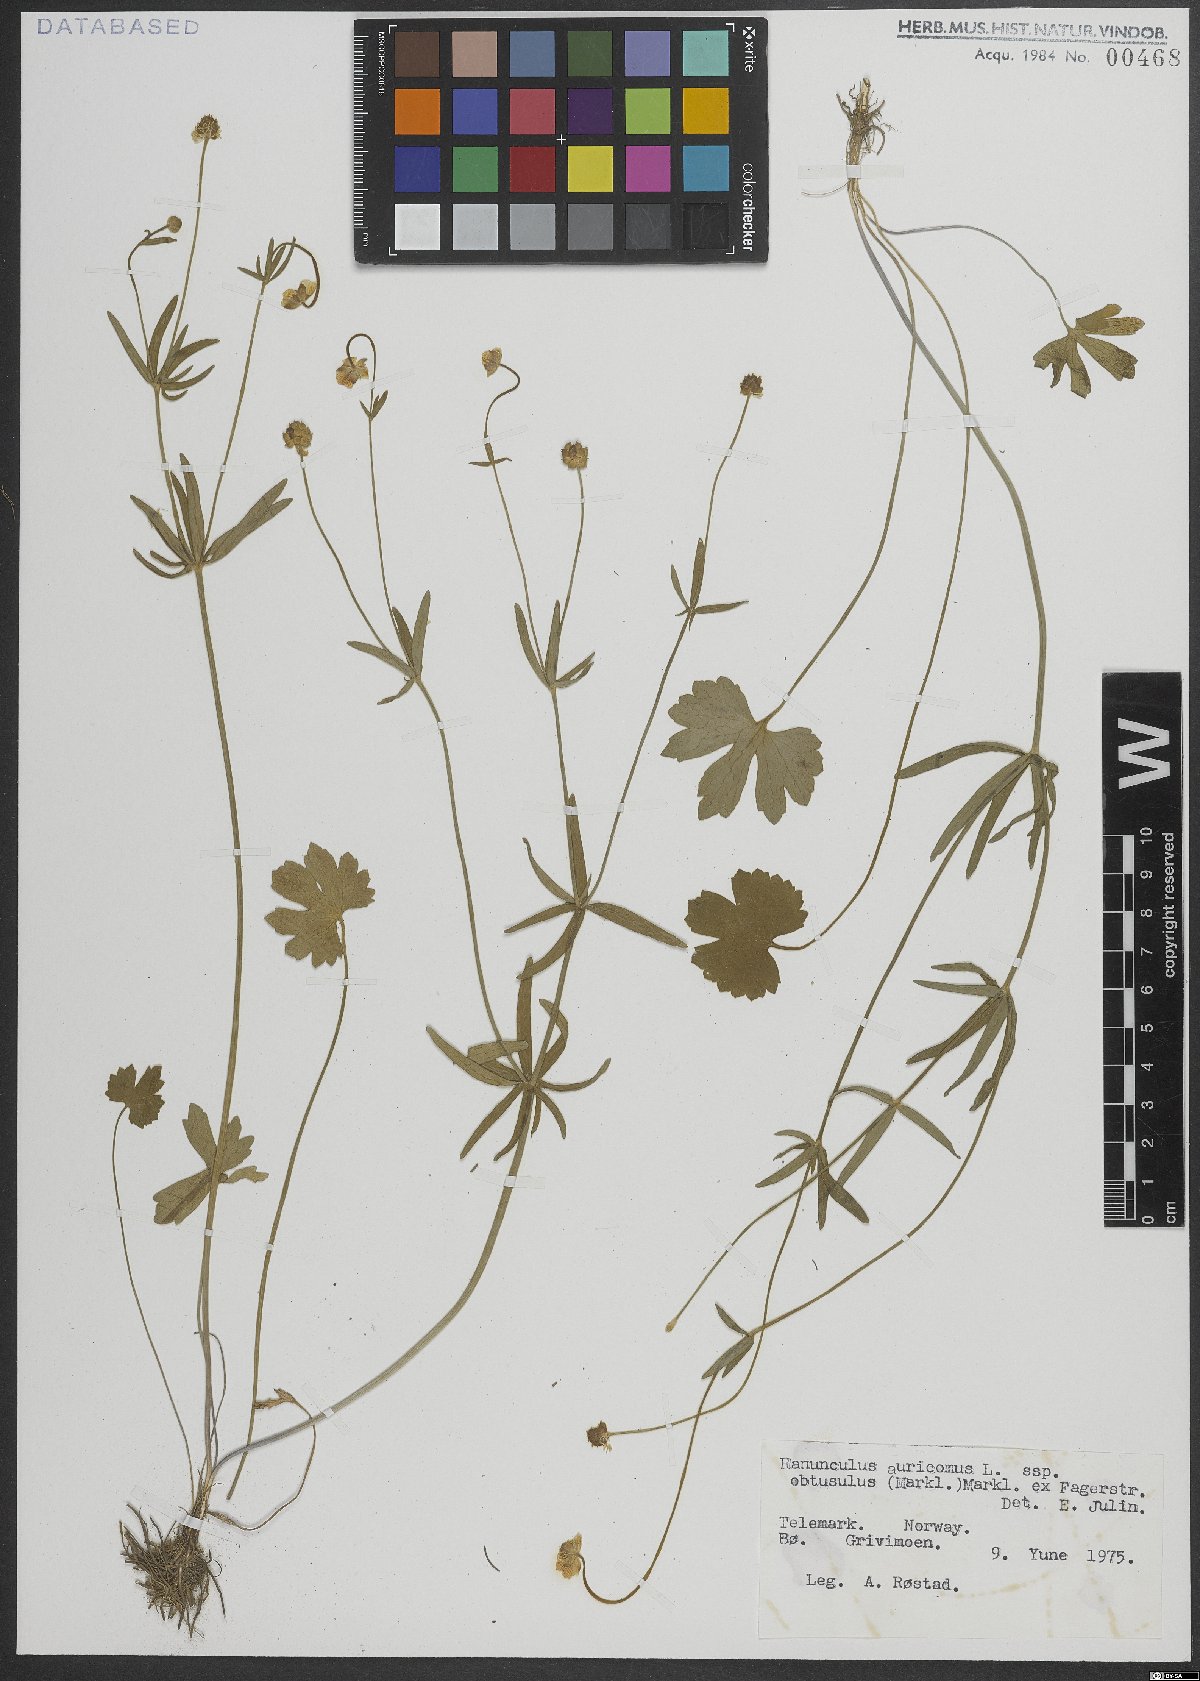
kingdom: Plantae
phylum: Tracheophyta
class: Magnoliopsida
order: Ranunculales
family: Ranunculaceae
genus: Ranunculus
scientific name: Ranunculus auricomus
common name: Goldilocks buttercup
